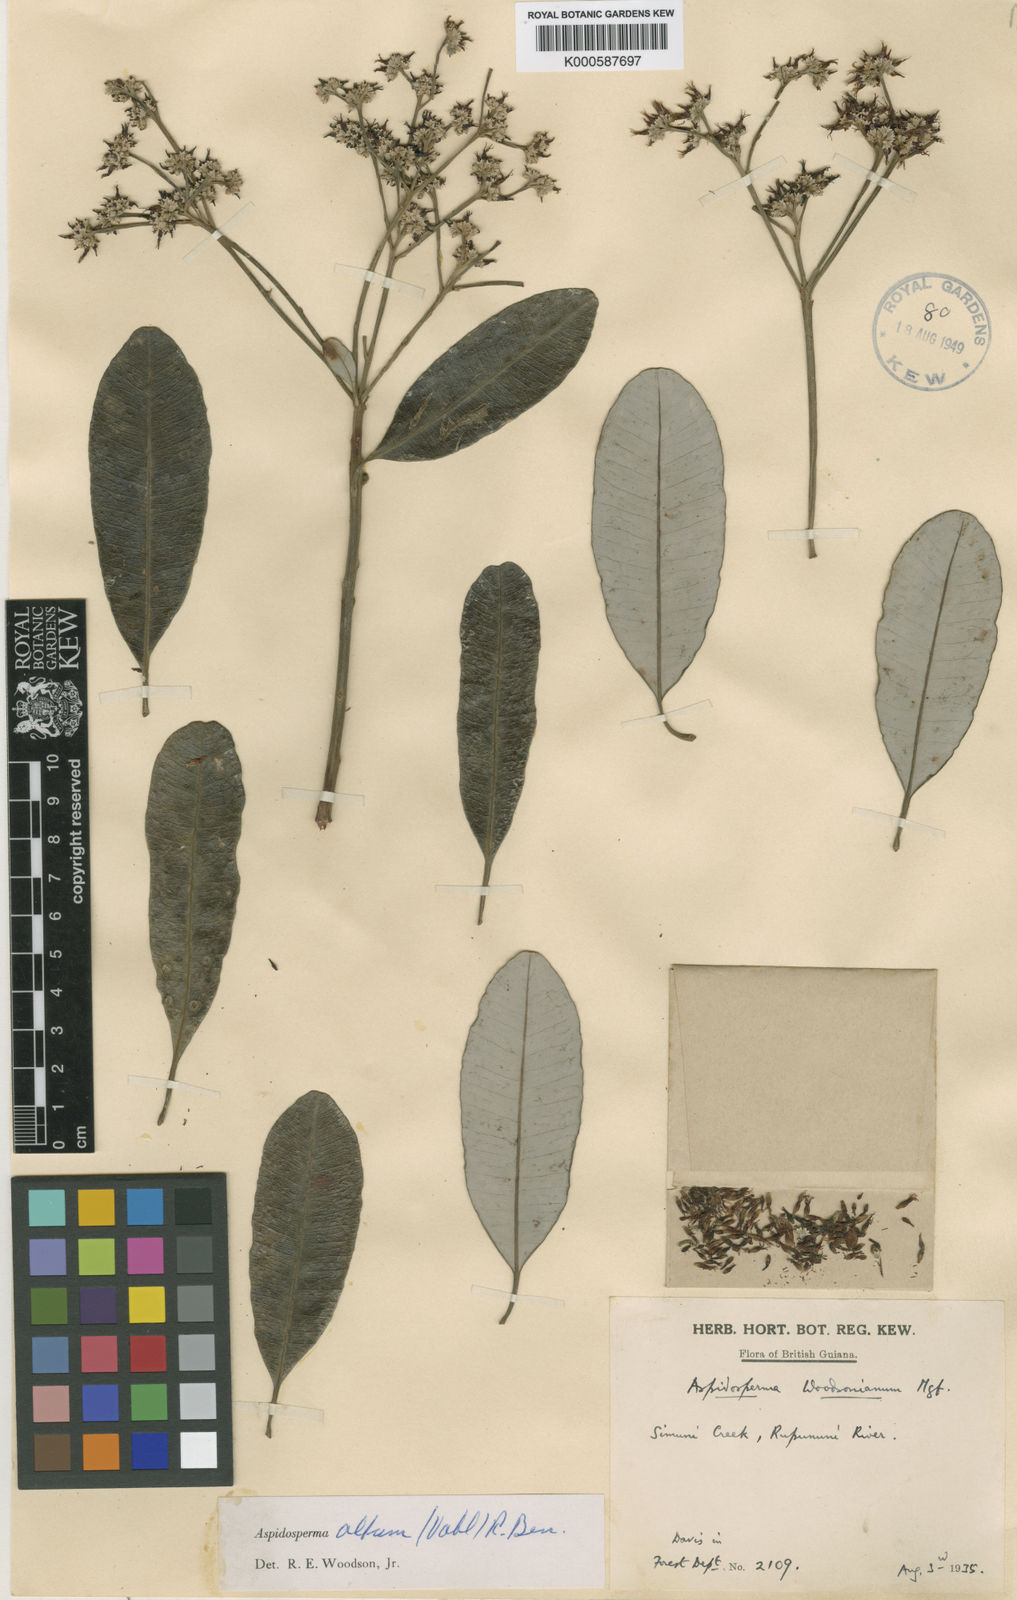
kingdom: Plantae
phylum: Tracheophyta
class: Magnoliopsida
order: Gentianales
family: Apocynaceae
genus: Aspidosperma
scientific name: Aspidosperma spruceanum
